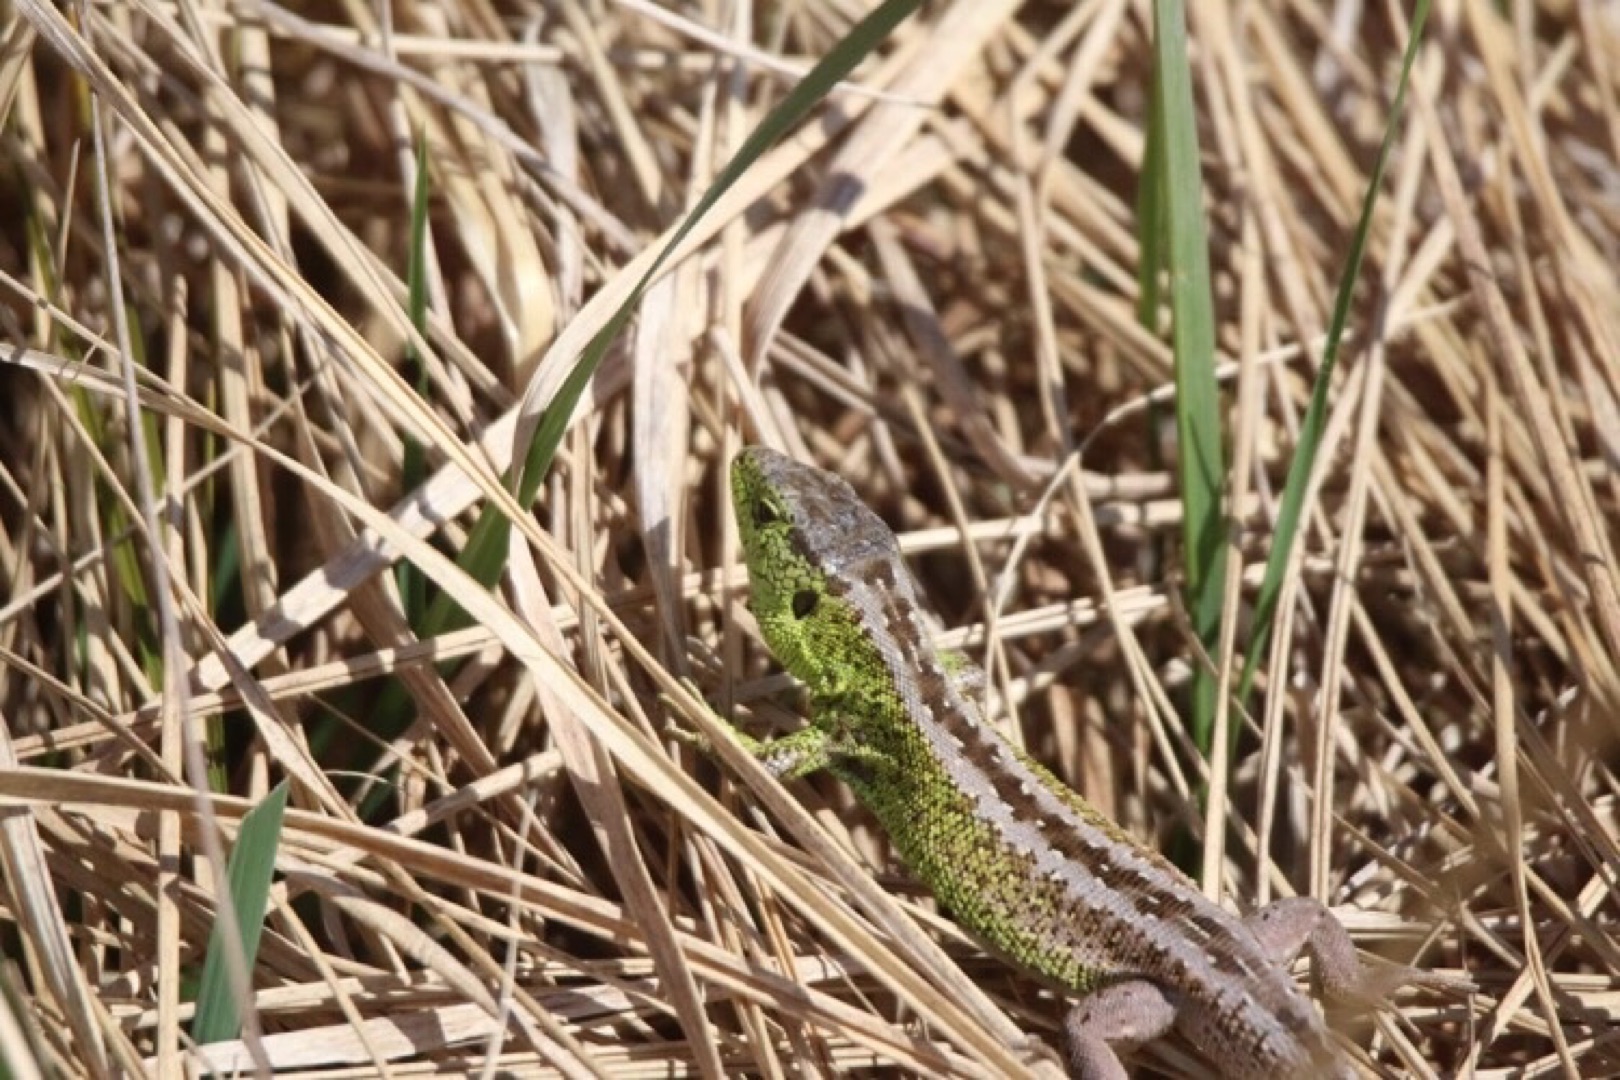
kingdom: Animalia
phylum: Chordata
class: Squamata
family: Lacertidae
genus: Lacerta
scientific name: Lacerta agilis
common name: Markfirben
